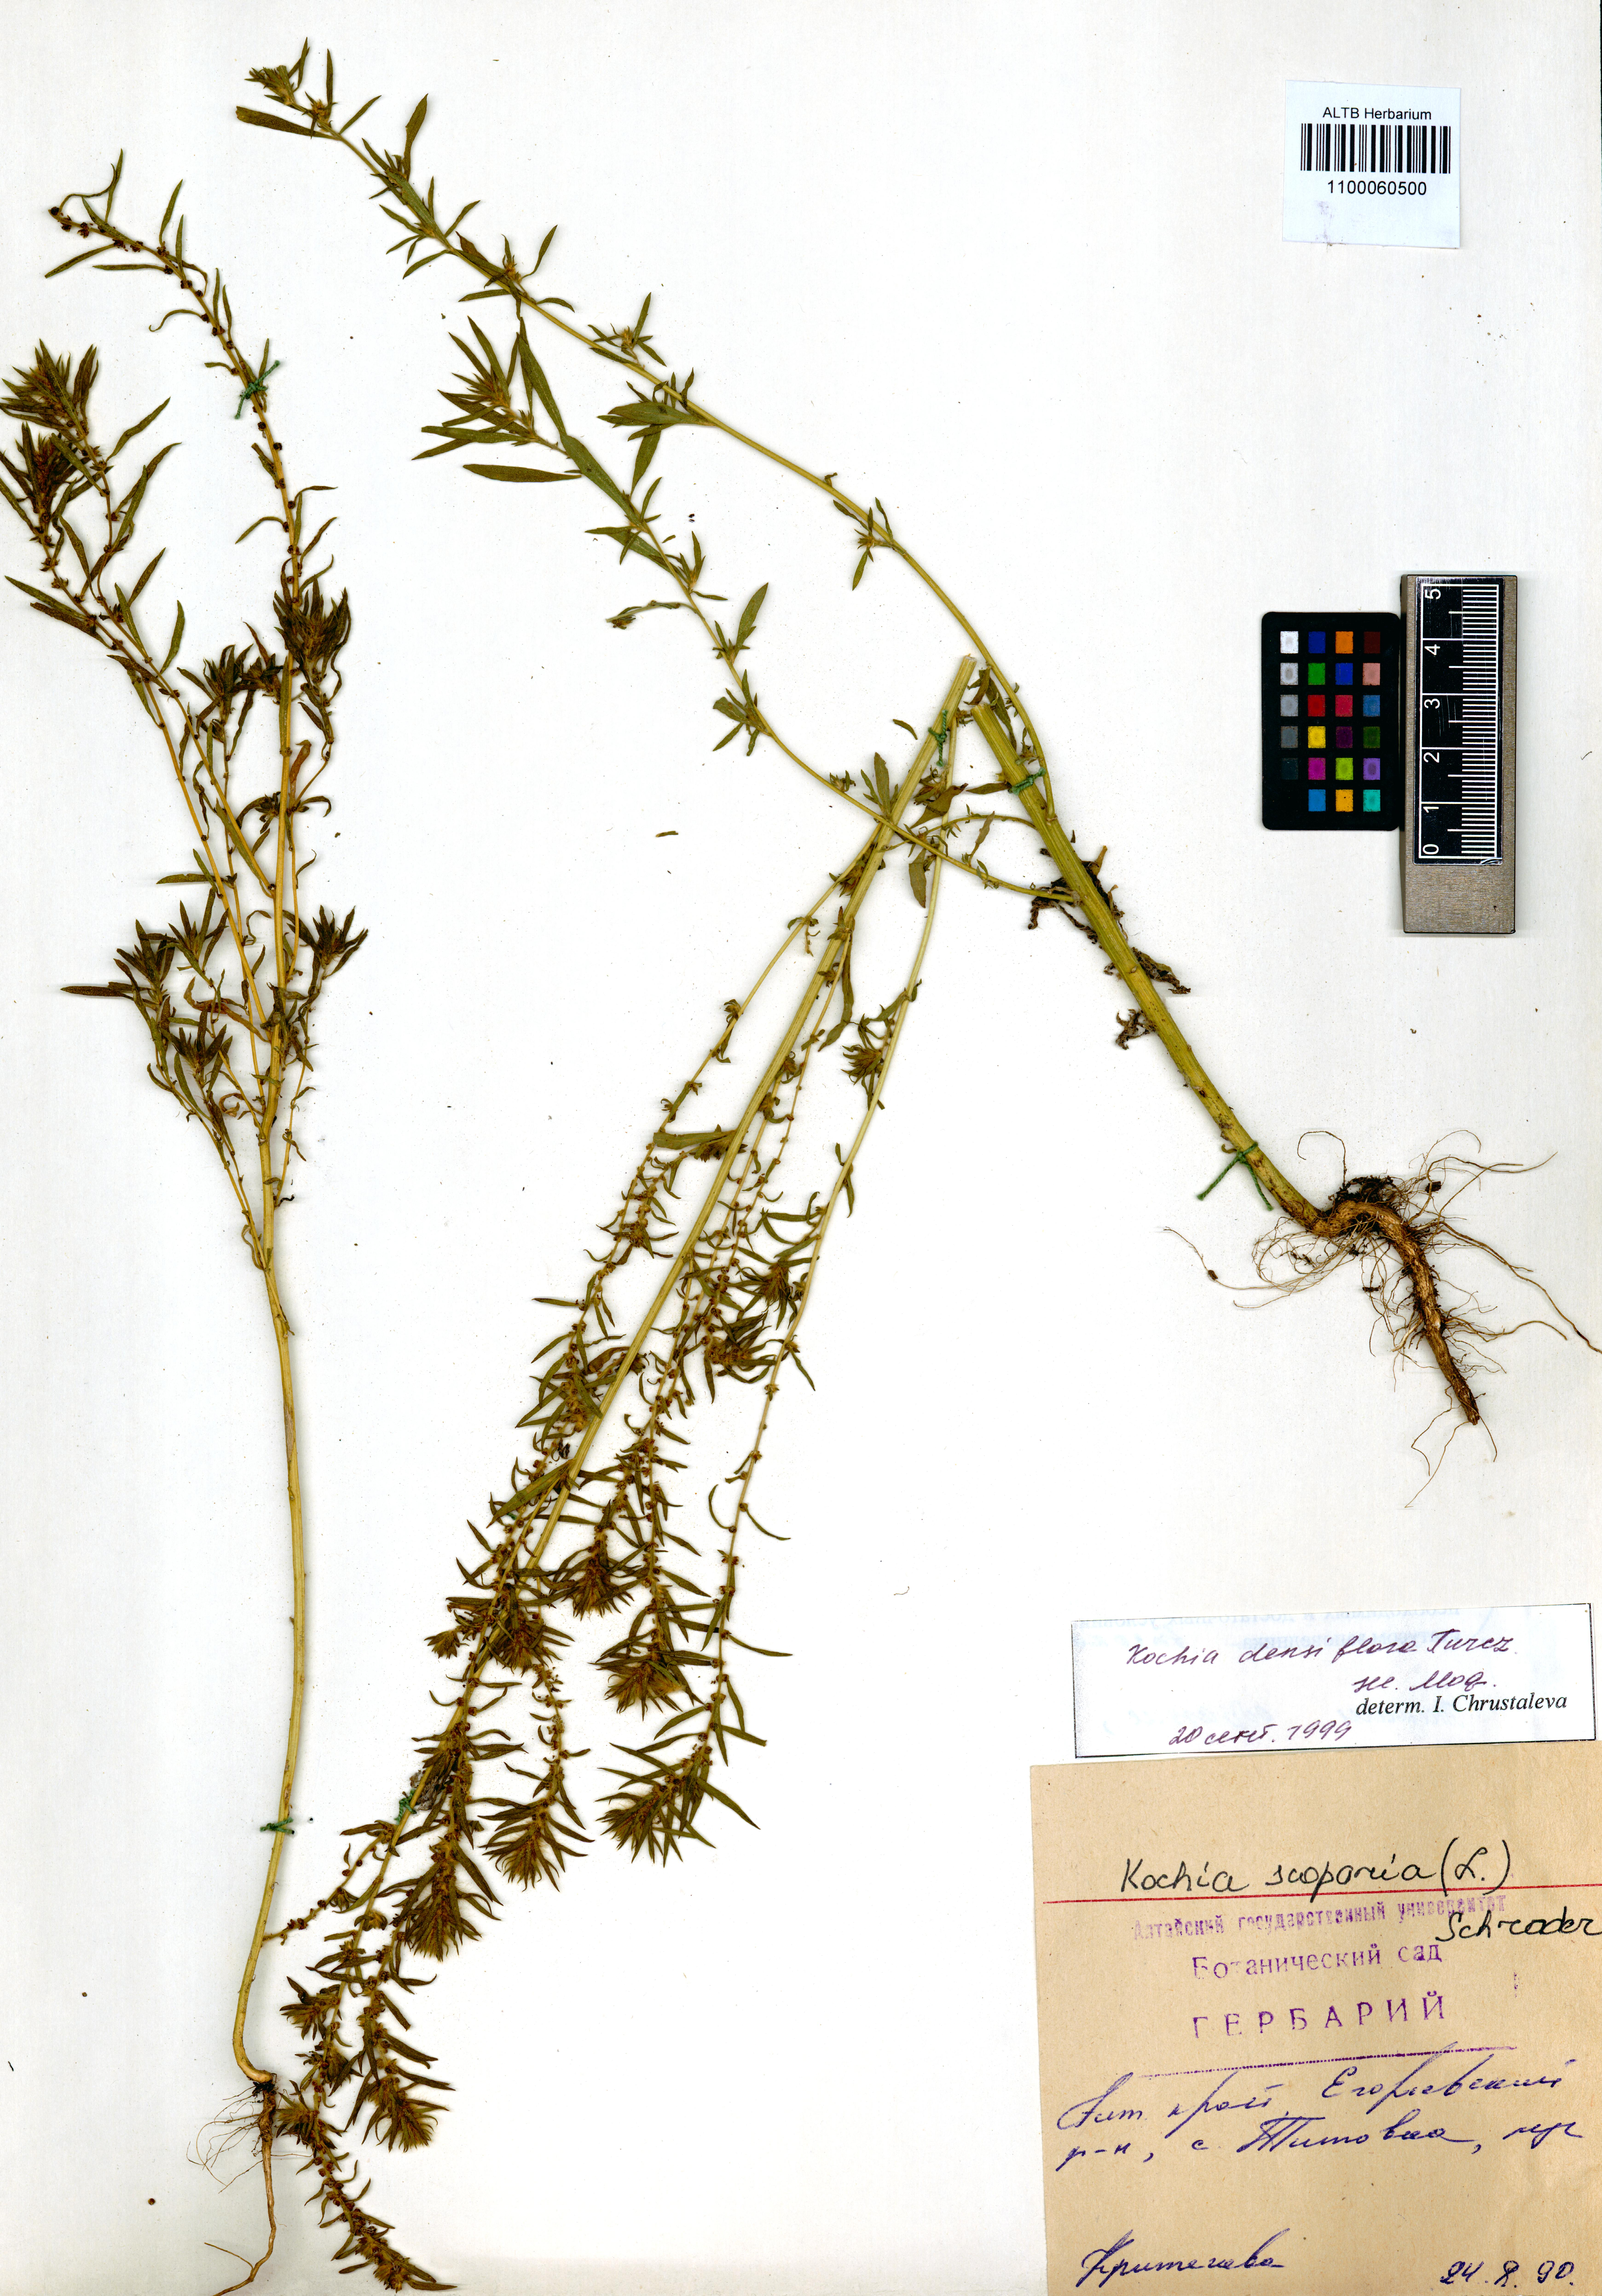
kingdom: Plantae
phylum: Tracheophyta
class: Magnoliopsida
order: Caryophyllales
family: Amaranthaceae
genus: Bassia
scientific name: Bassia scoparia
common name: Belvedere
